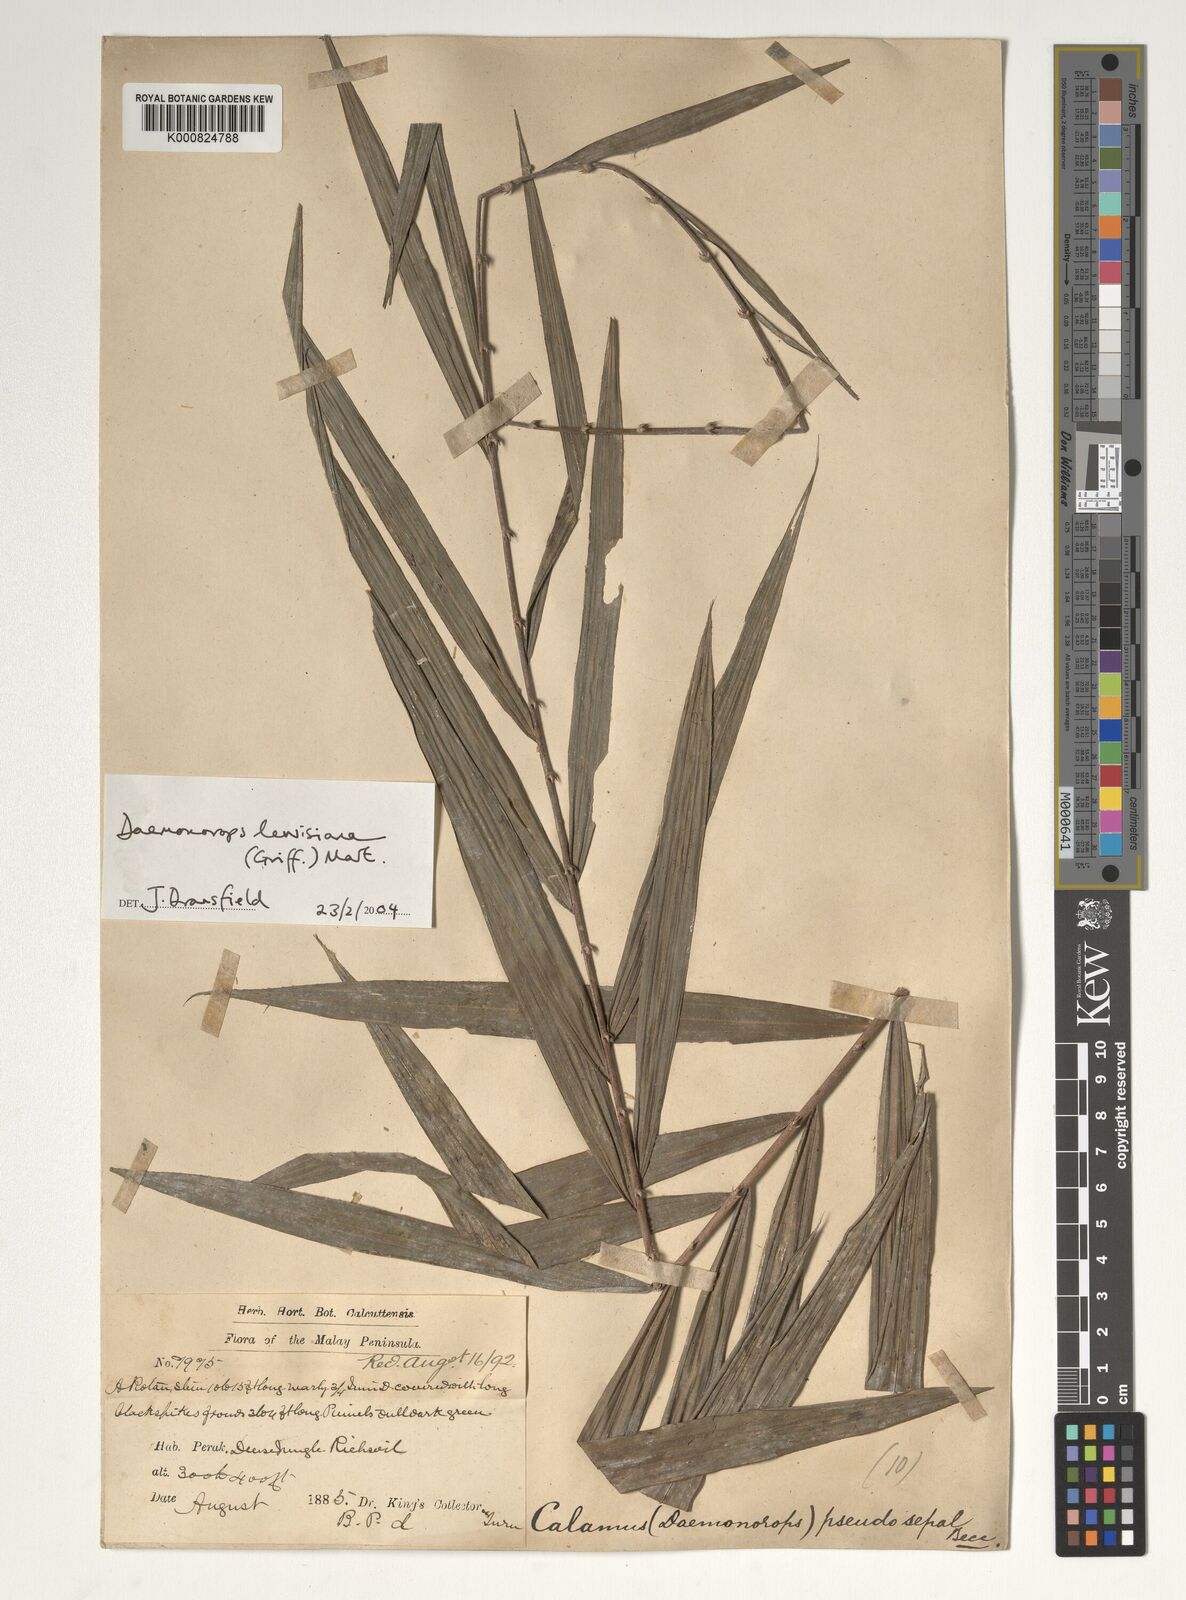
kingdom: Plantae
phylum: Tracheophyta
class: Liliopsida
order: Arecales
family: Arecaceae
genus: Calamus
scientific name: Calamus melanochaetes
